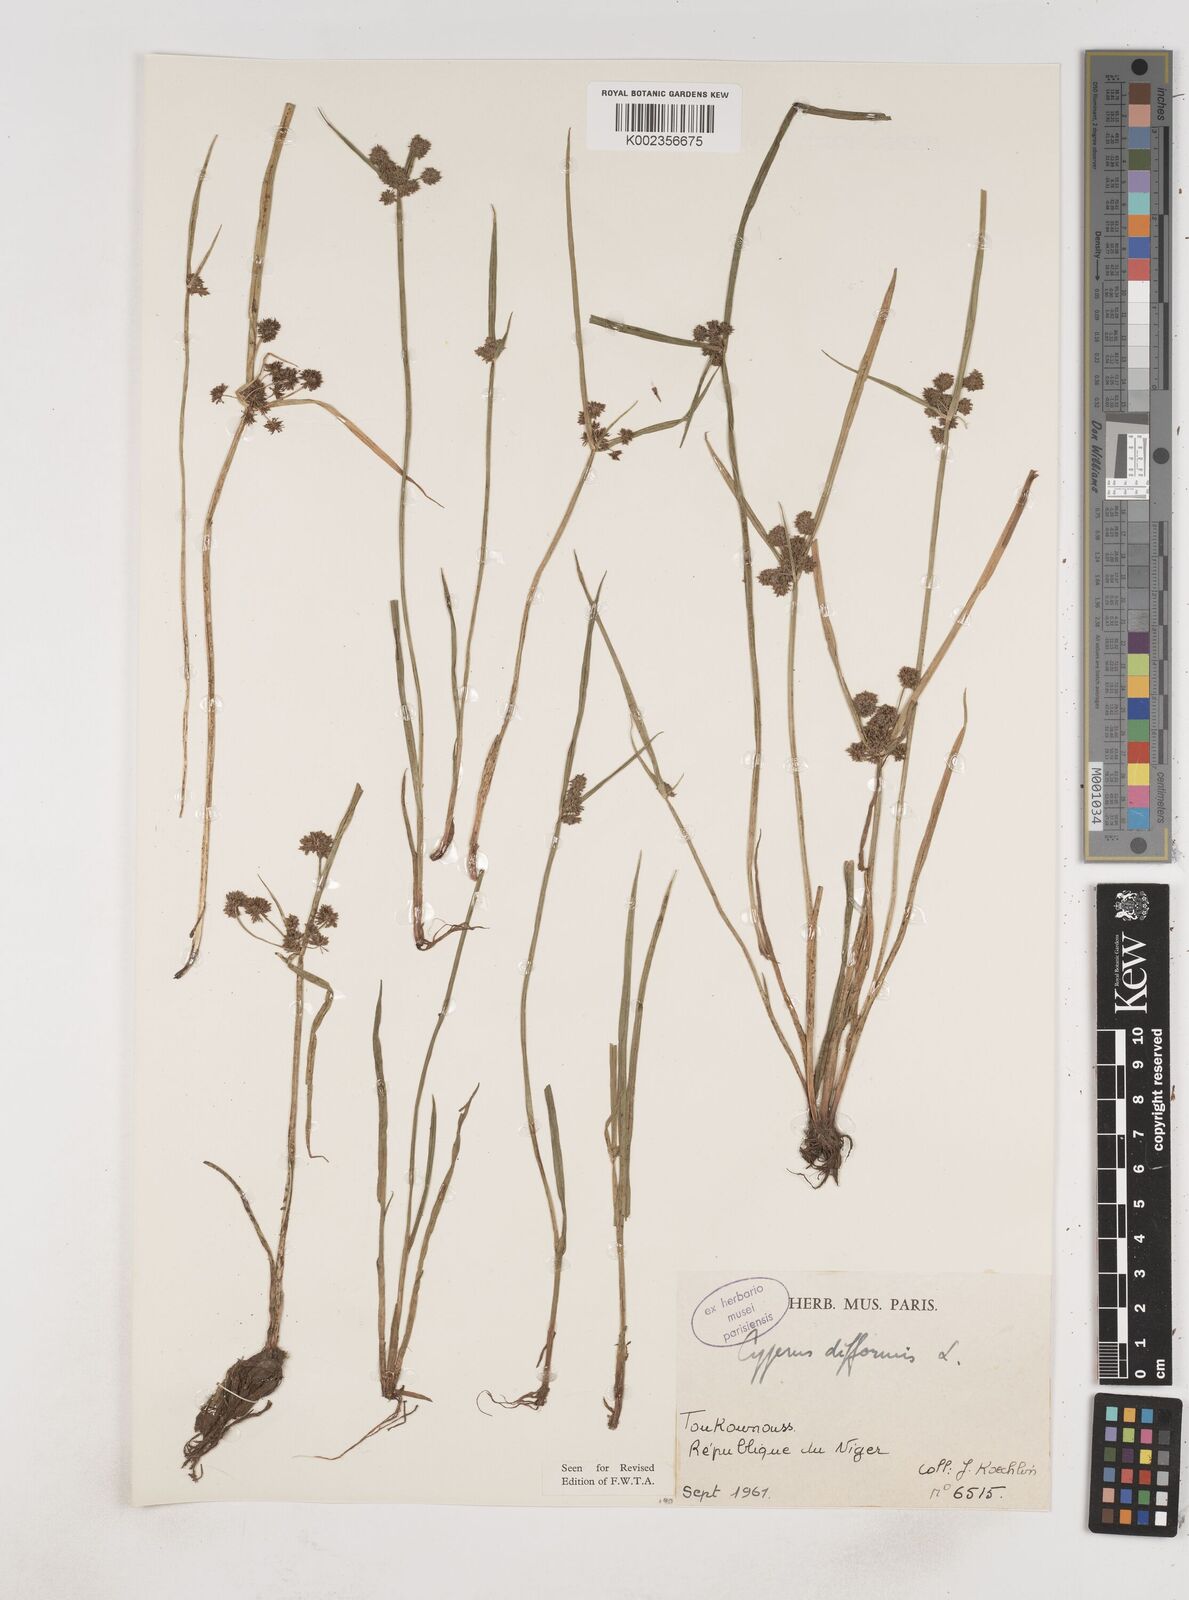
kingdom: Plantae
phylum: Tracheophyta
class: Liliopsida
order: Poales
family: Cyperaceae
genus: Cyperus
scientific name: Cyperus difformis
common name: Variable flatsedge
